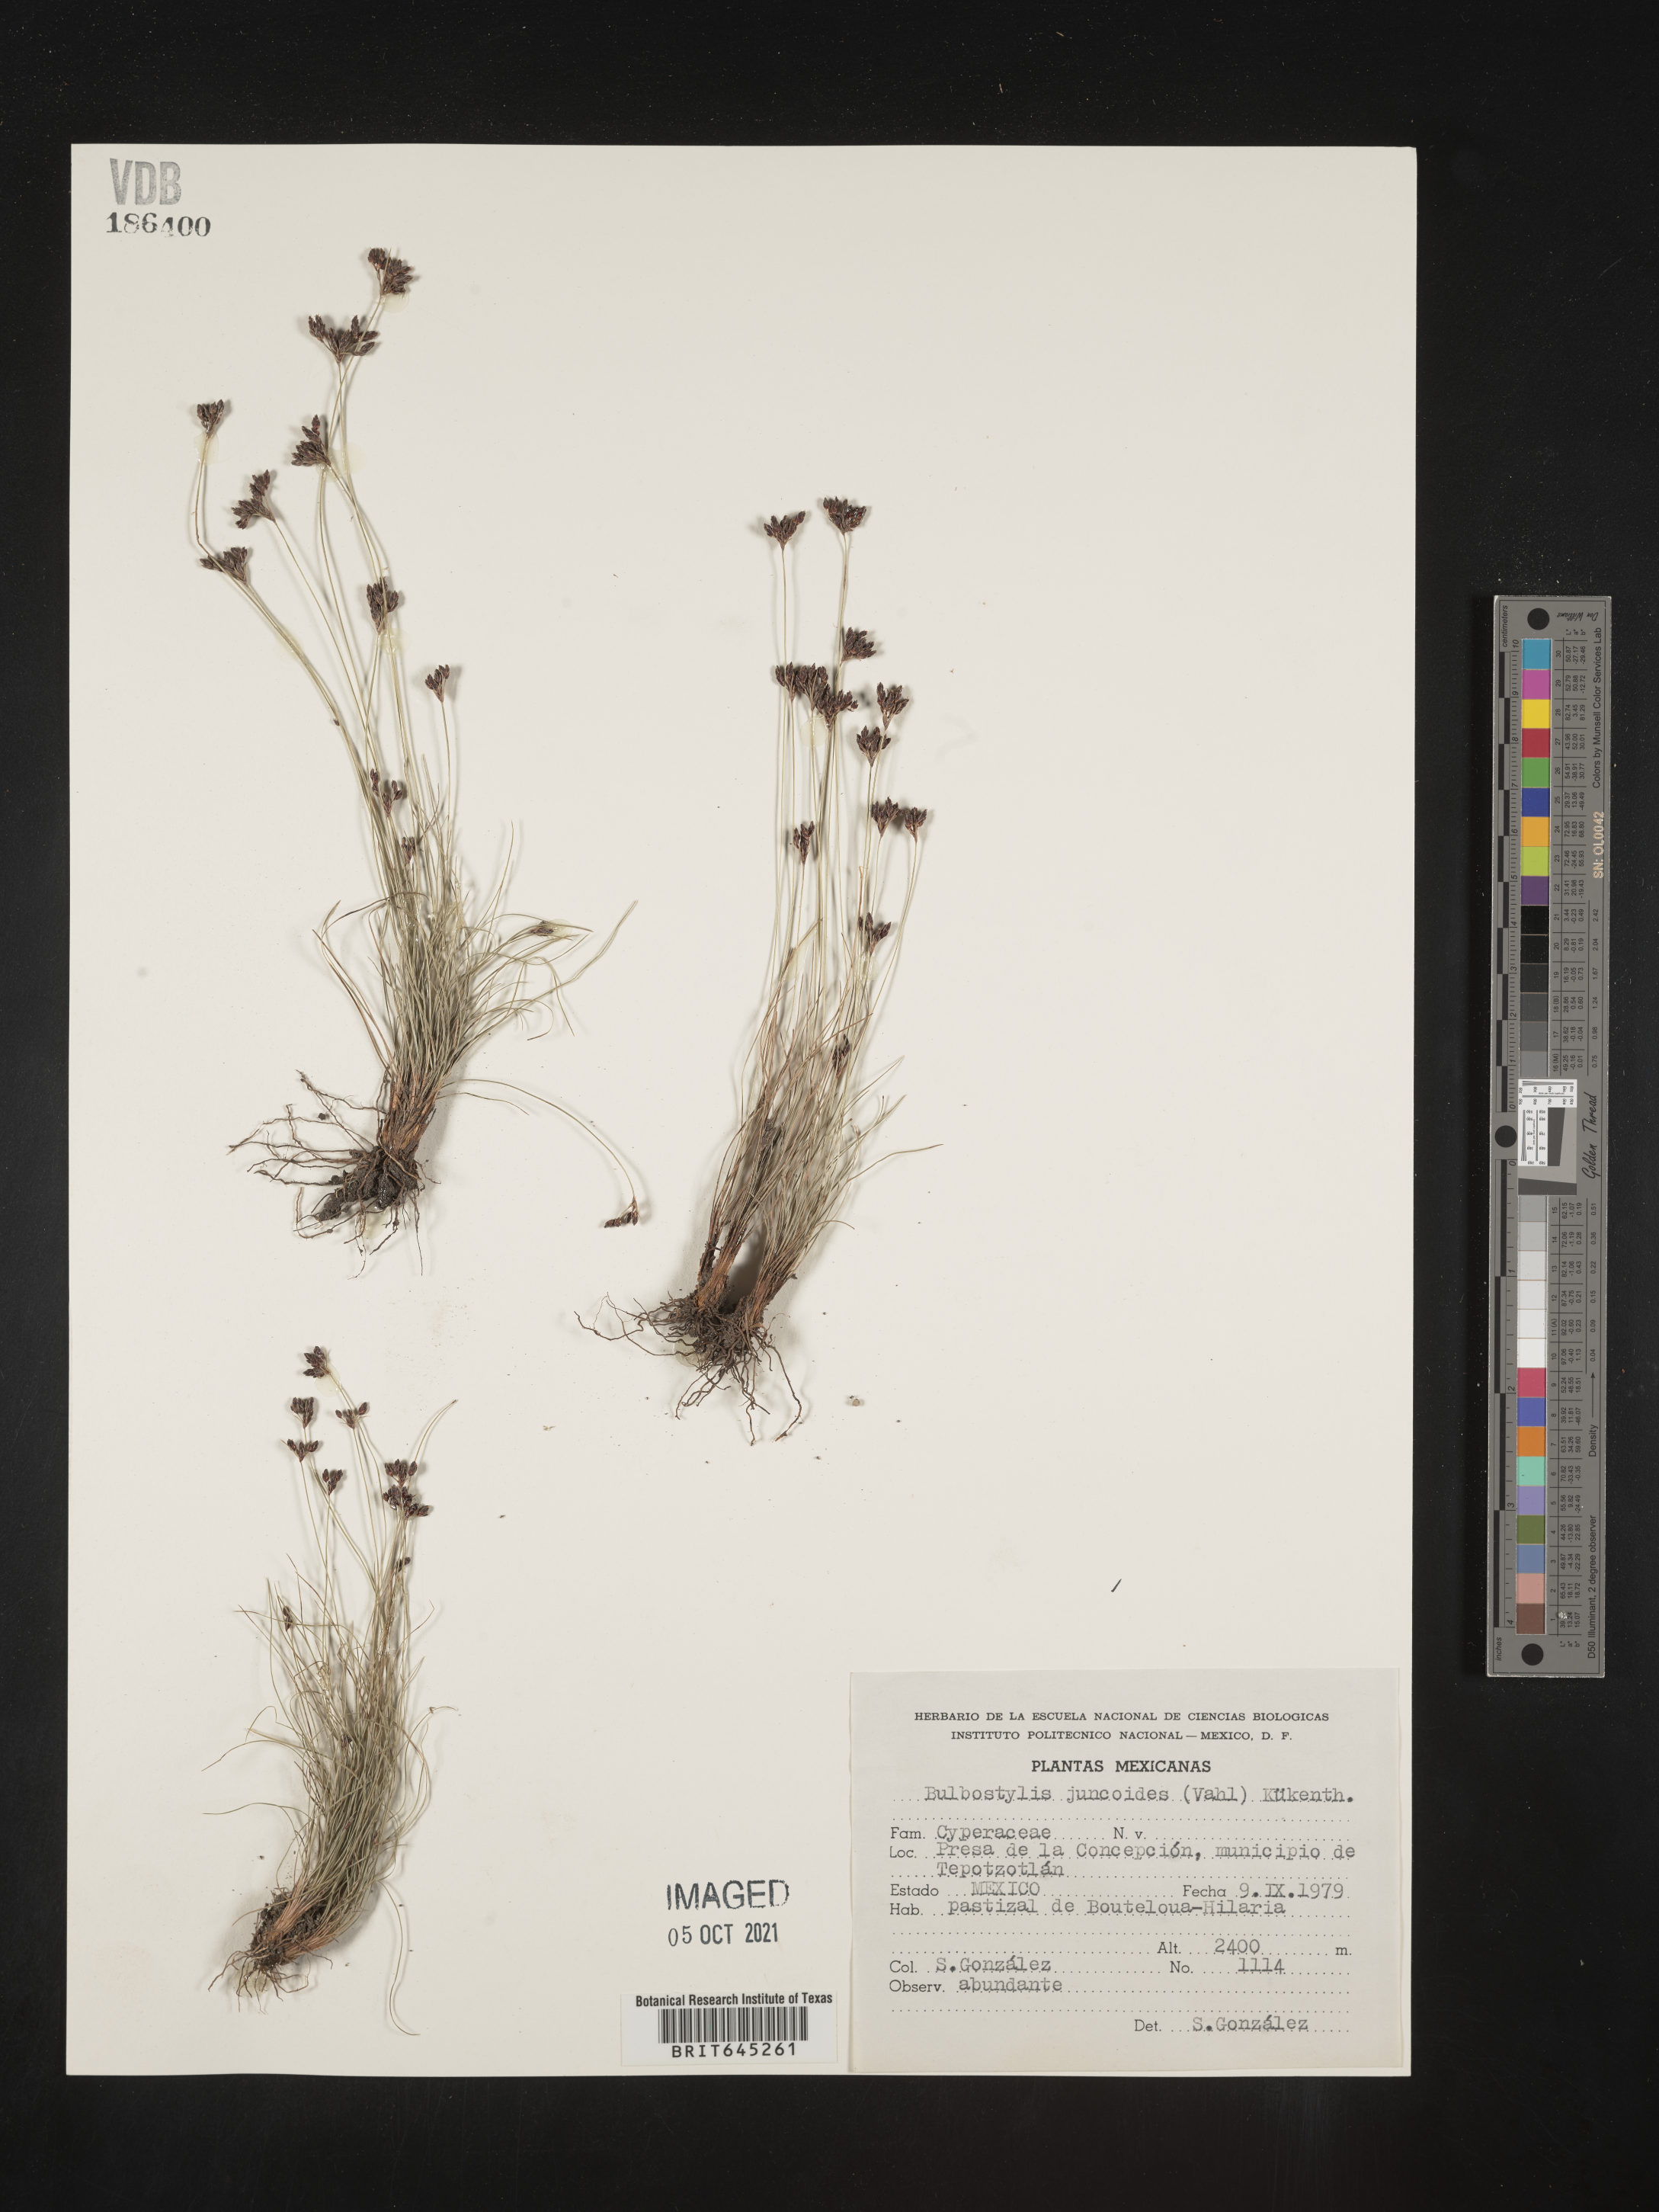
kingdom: Plantae
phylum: Tracheophyta
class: Liliopsida
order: Poales
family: Cyperaceae
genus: Bulbostylis
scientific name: Bulbostylis juncoides
